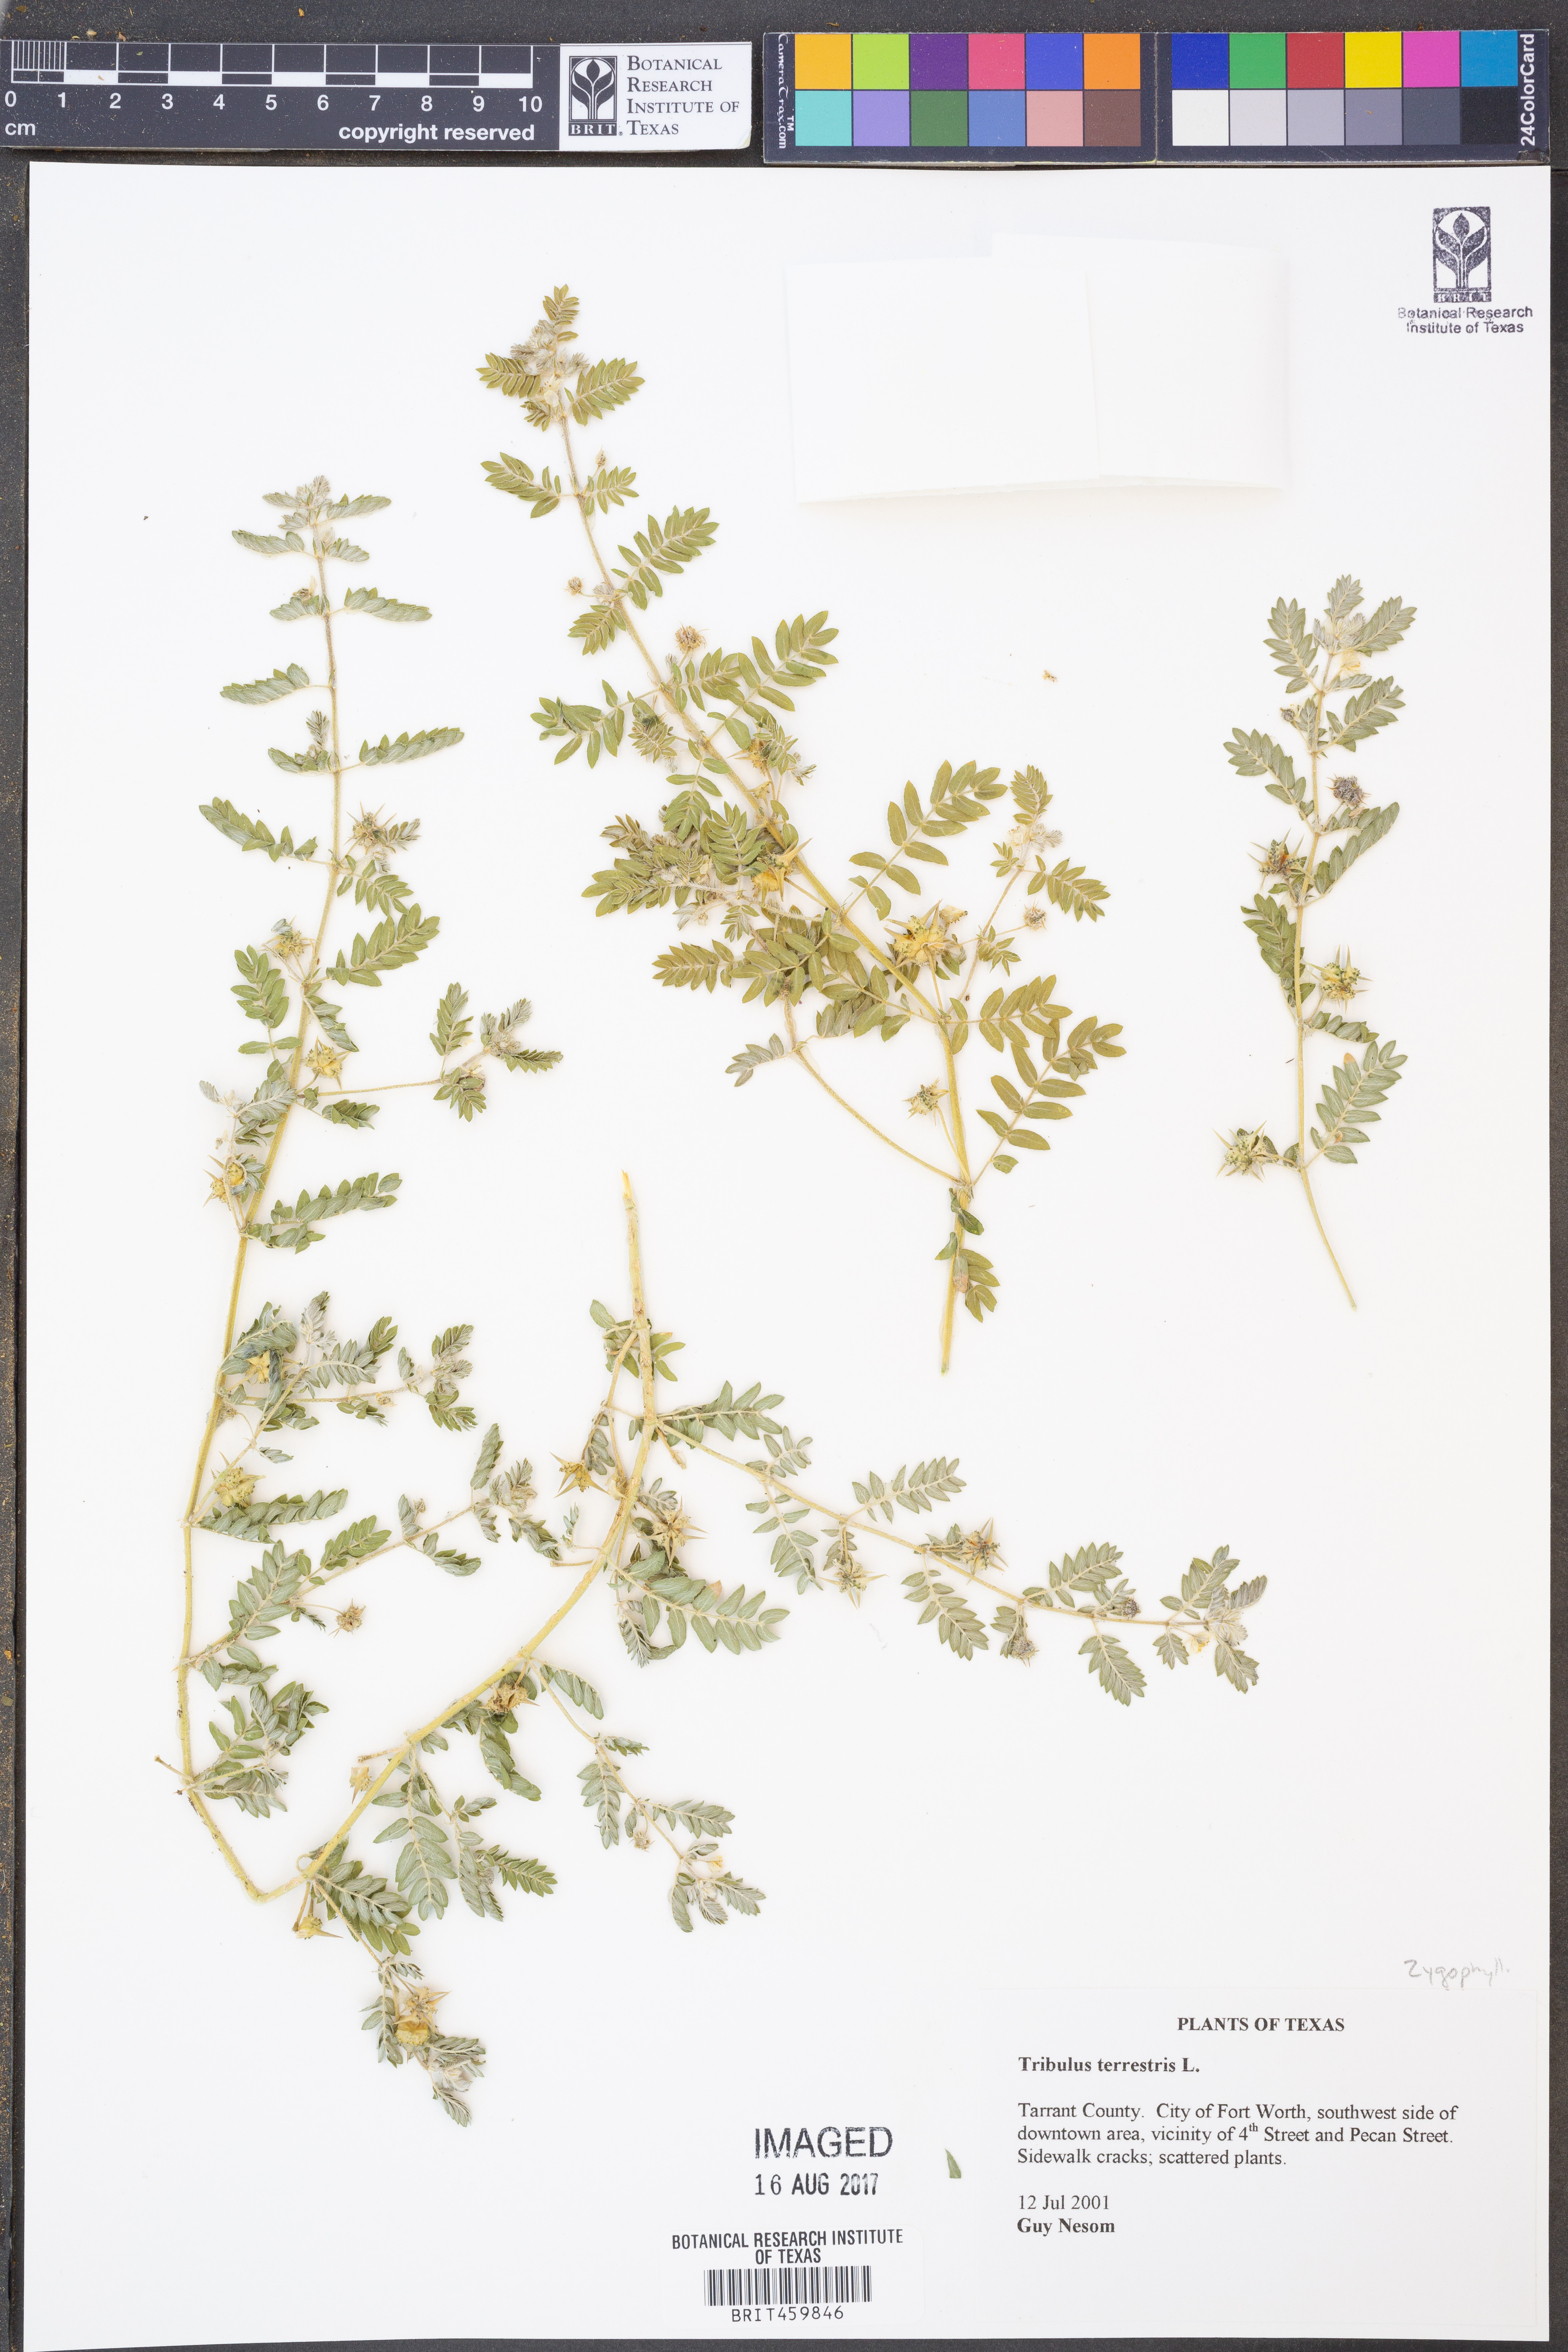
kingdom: Plantae
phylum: Tracheophyta
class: Magnoliopsida
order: Zygophyllales
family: Zygophyllaceae
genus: Tribulus
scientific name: Tribulus terrestris
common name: Puncturevine
